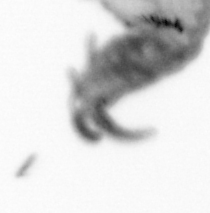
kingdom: Animalia
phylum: Annelida
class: Polychaeta
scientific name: Polychaeta
